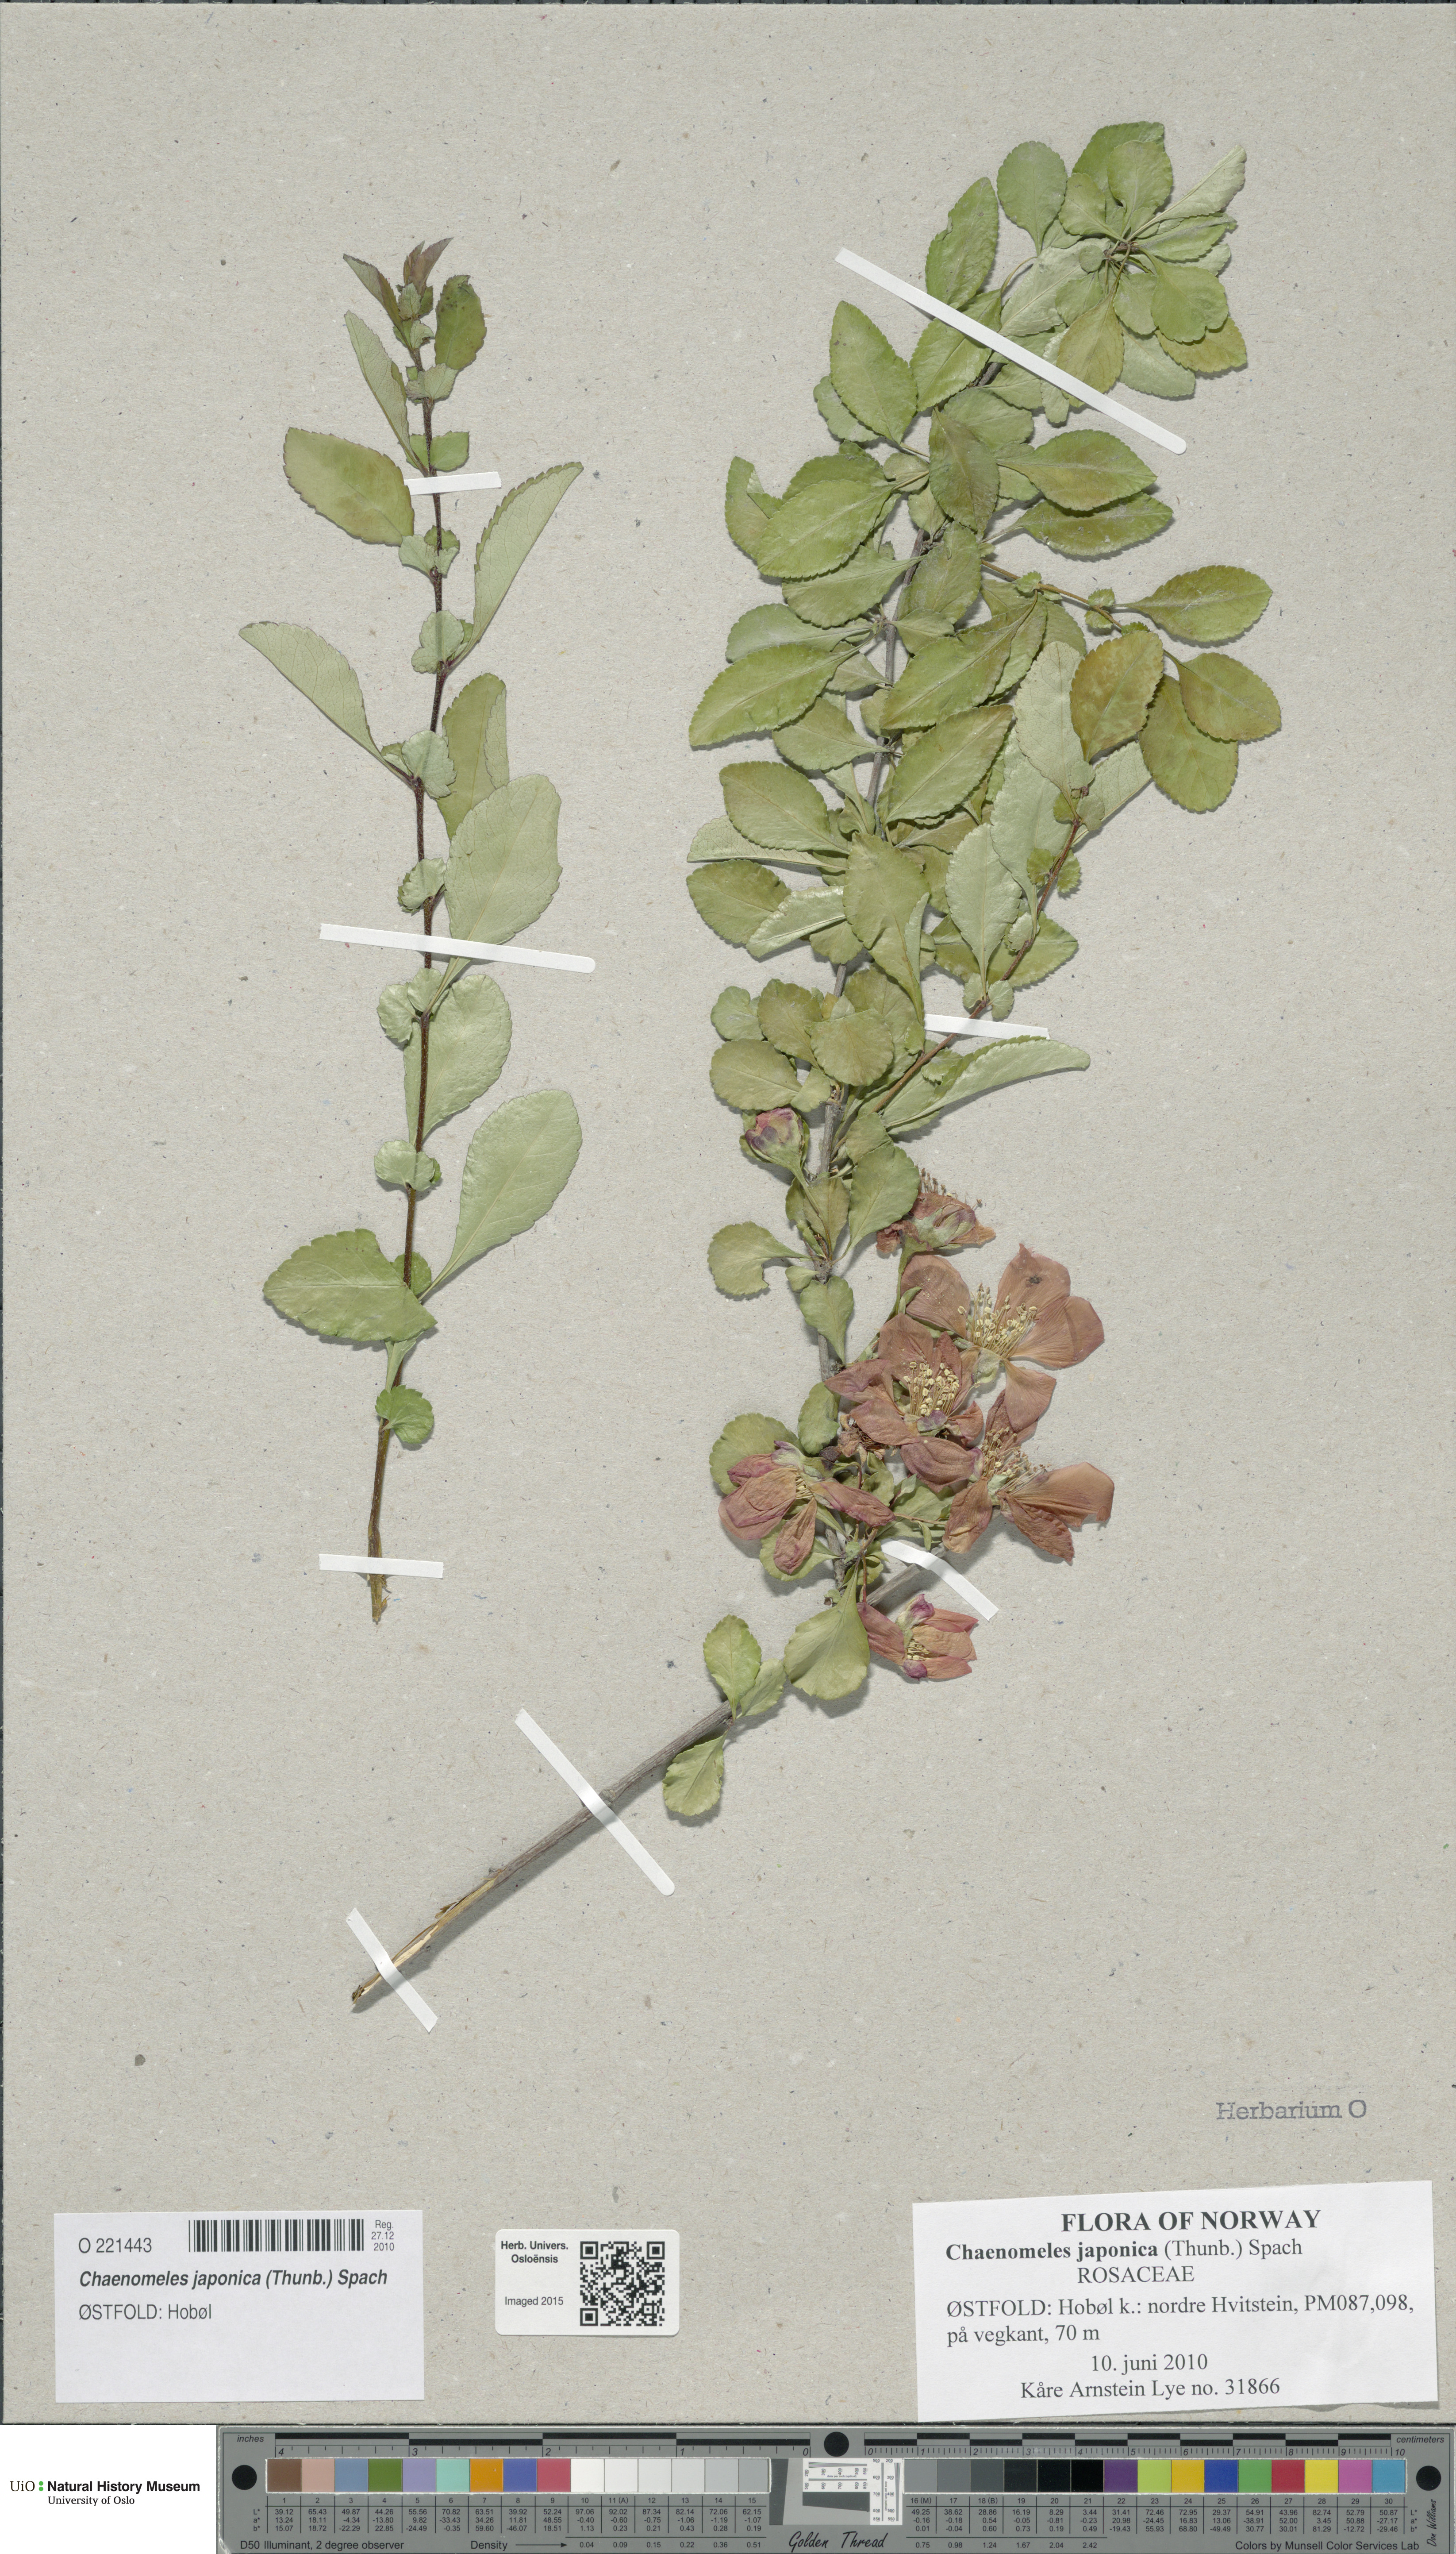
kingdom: Plantae
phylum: Tracheophyta
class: Magnoliopsida
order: Rosales
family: Rosaceae
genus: Chaenomeles
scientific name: Chaenomeles japonica
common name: Japanese quince
